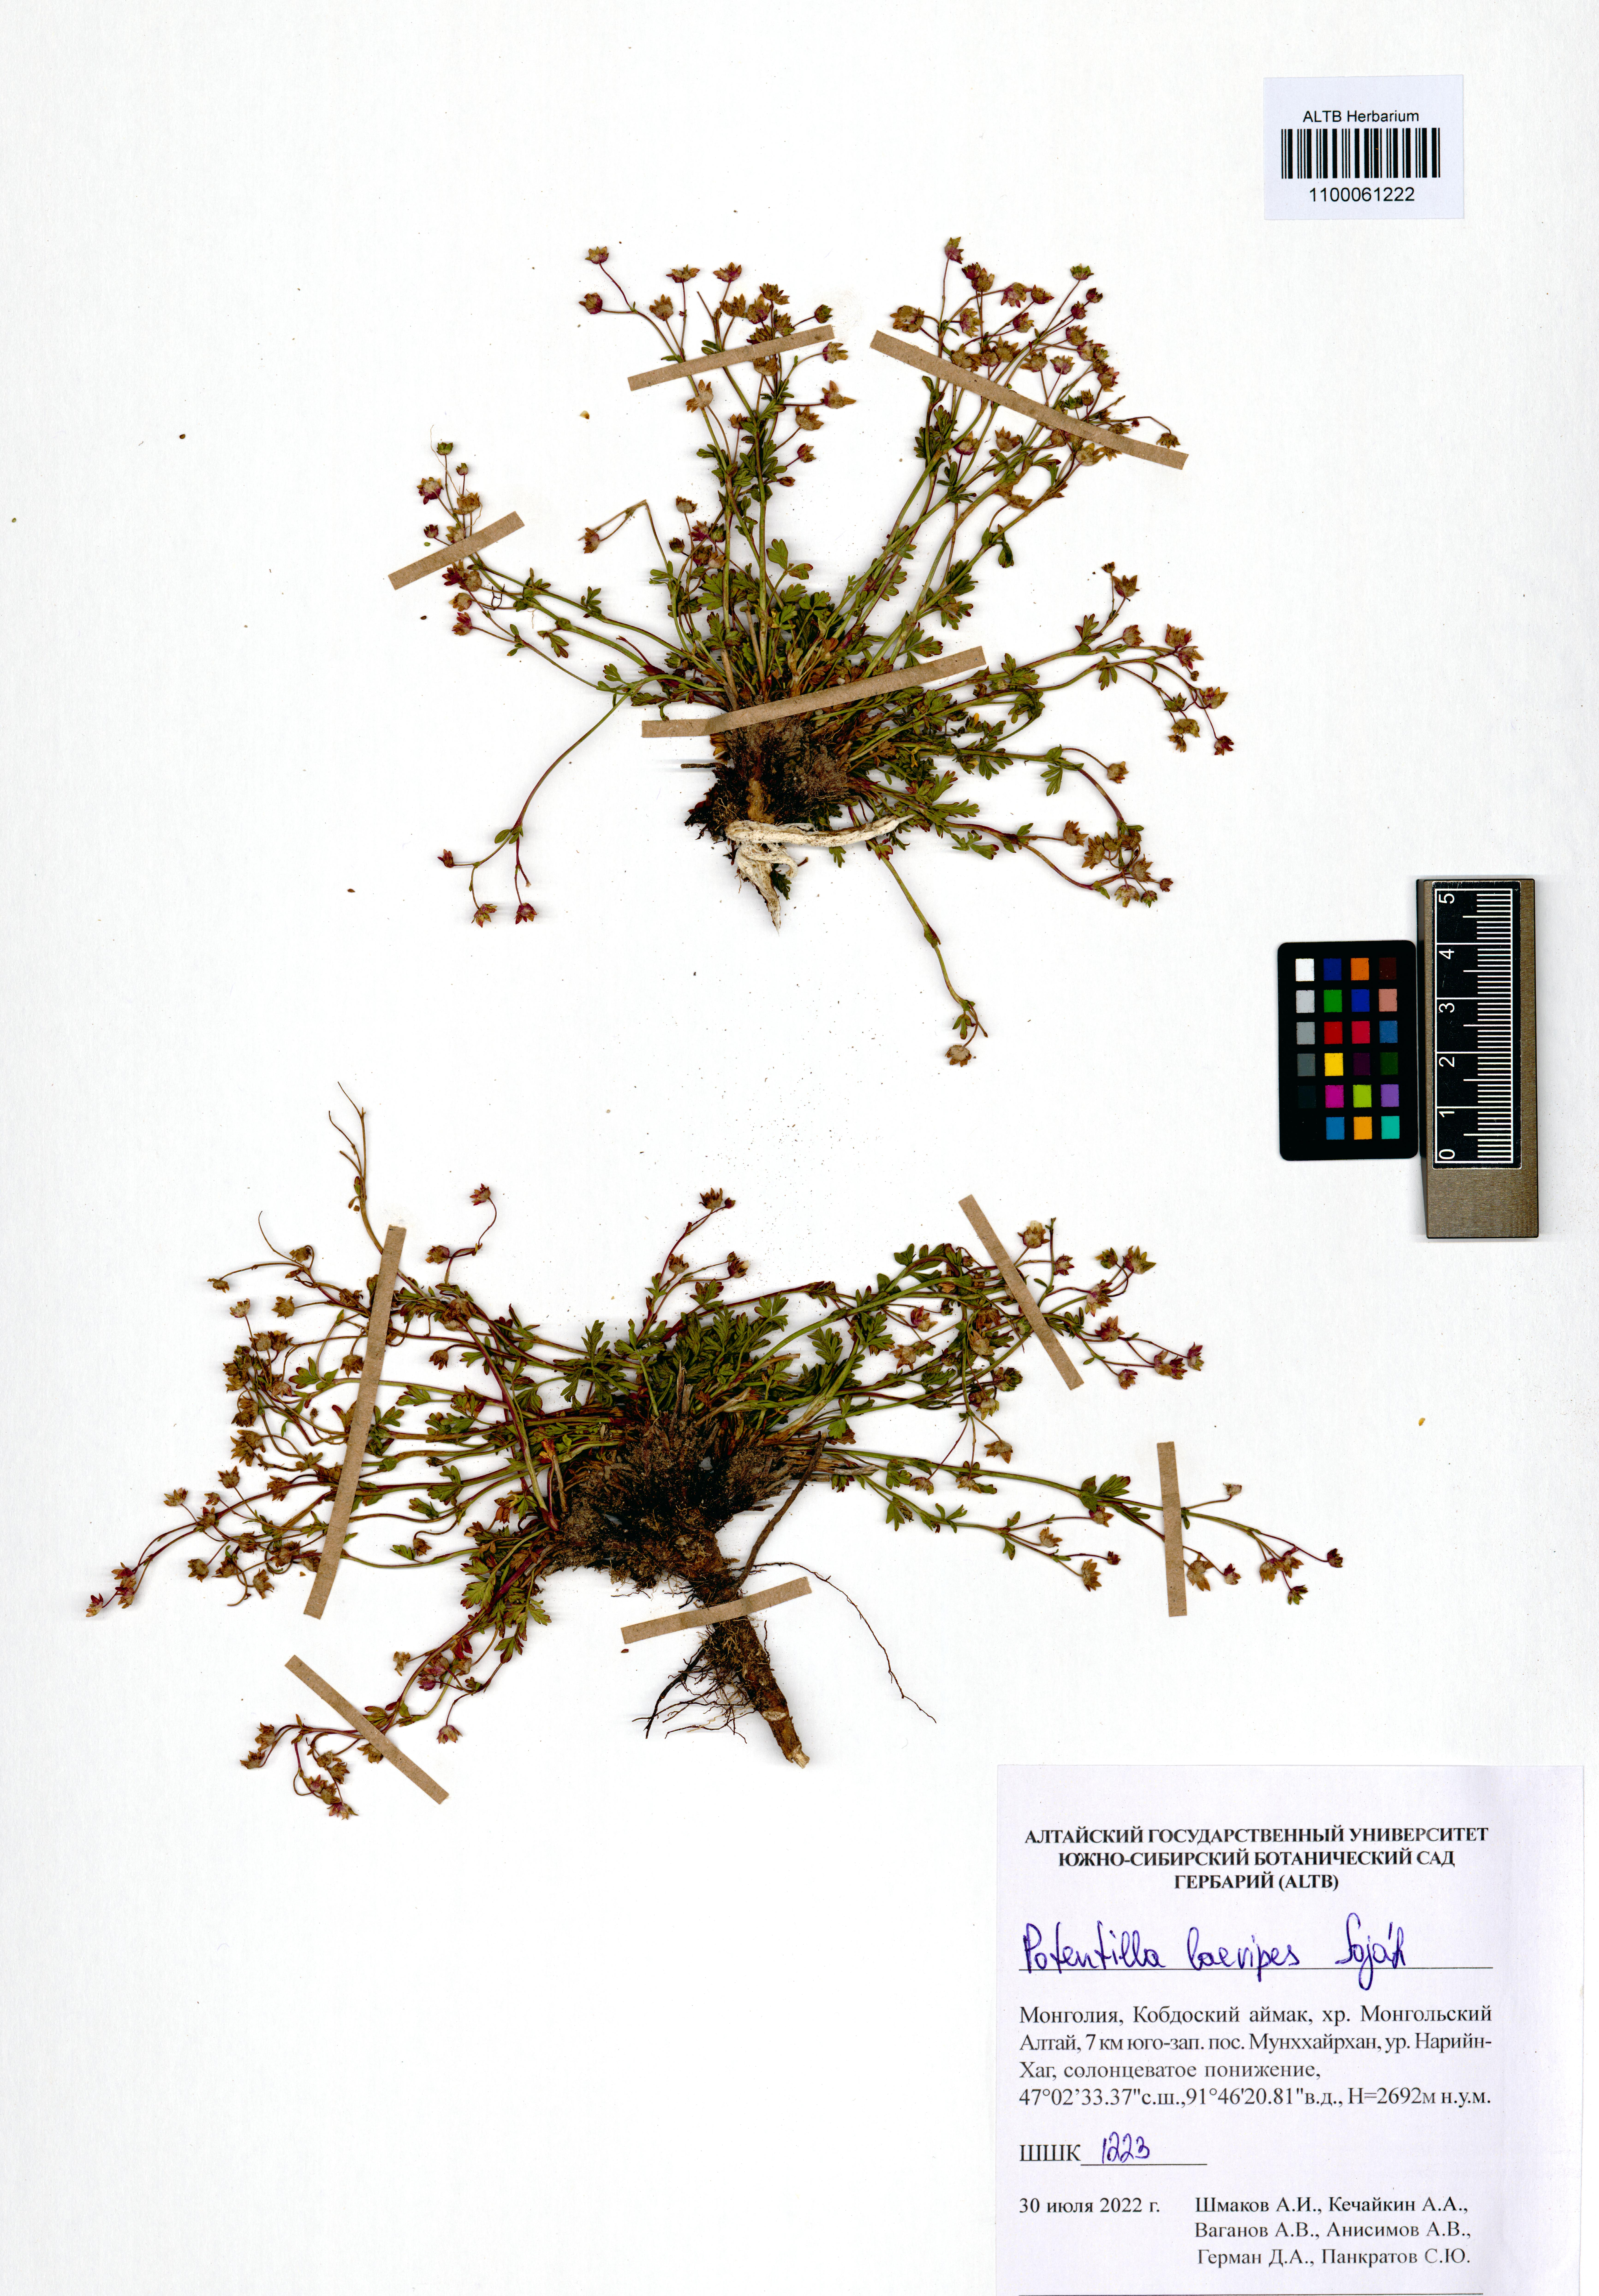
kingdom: Plantae
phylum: Tracheophyta
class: Magnoliopsida
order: Rosales
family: Rosaceae
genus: Potentilla
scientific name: Potentilla laevipes
